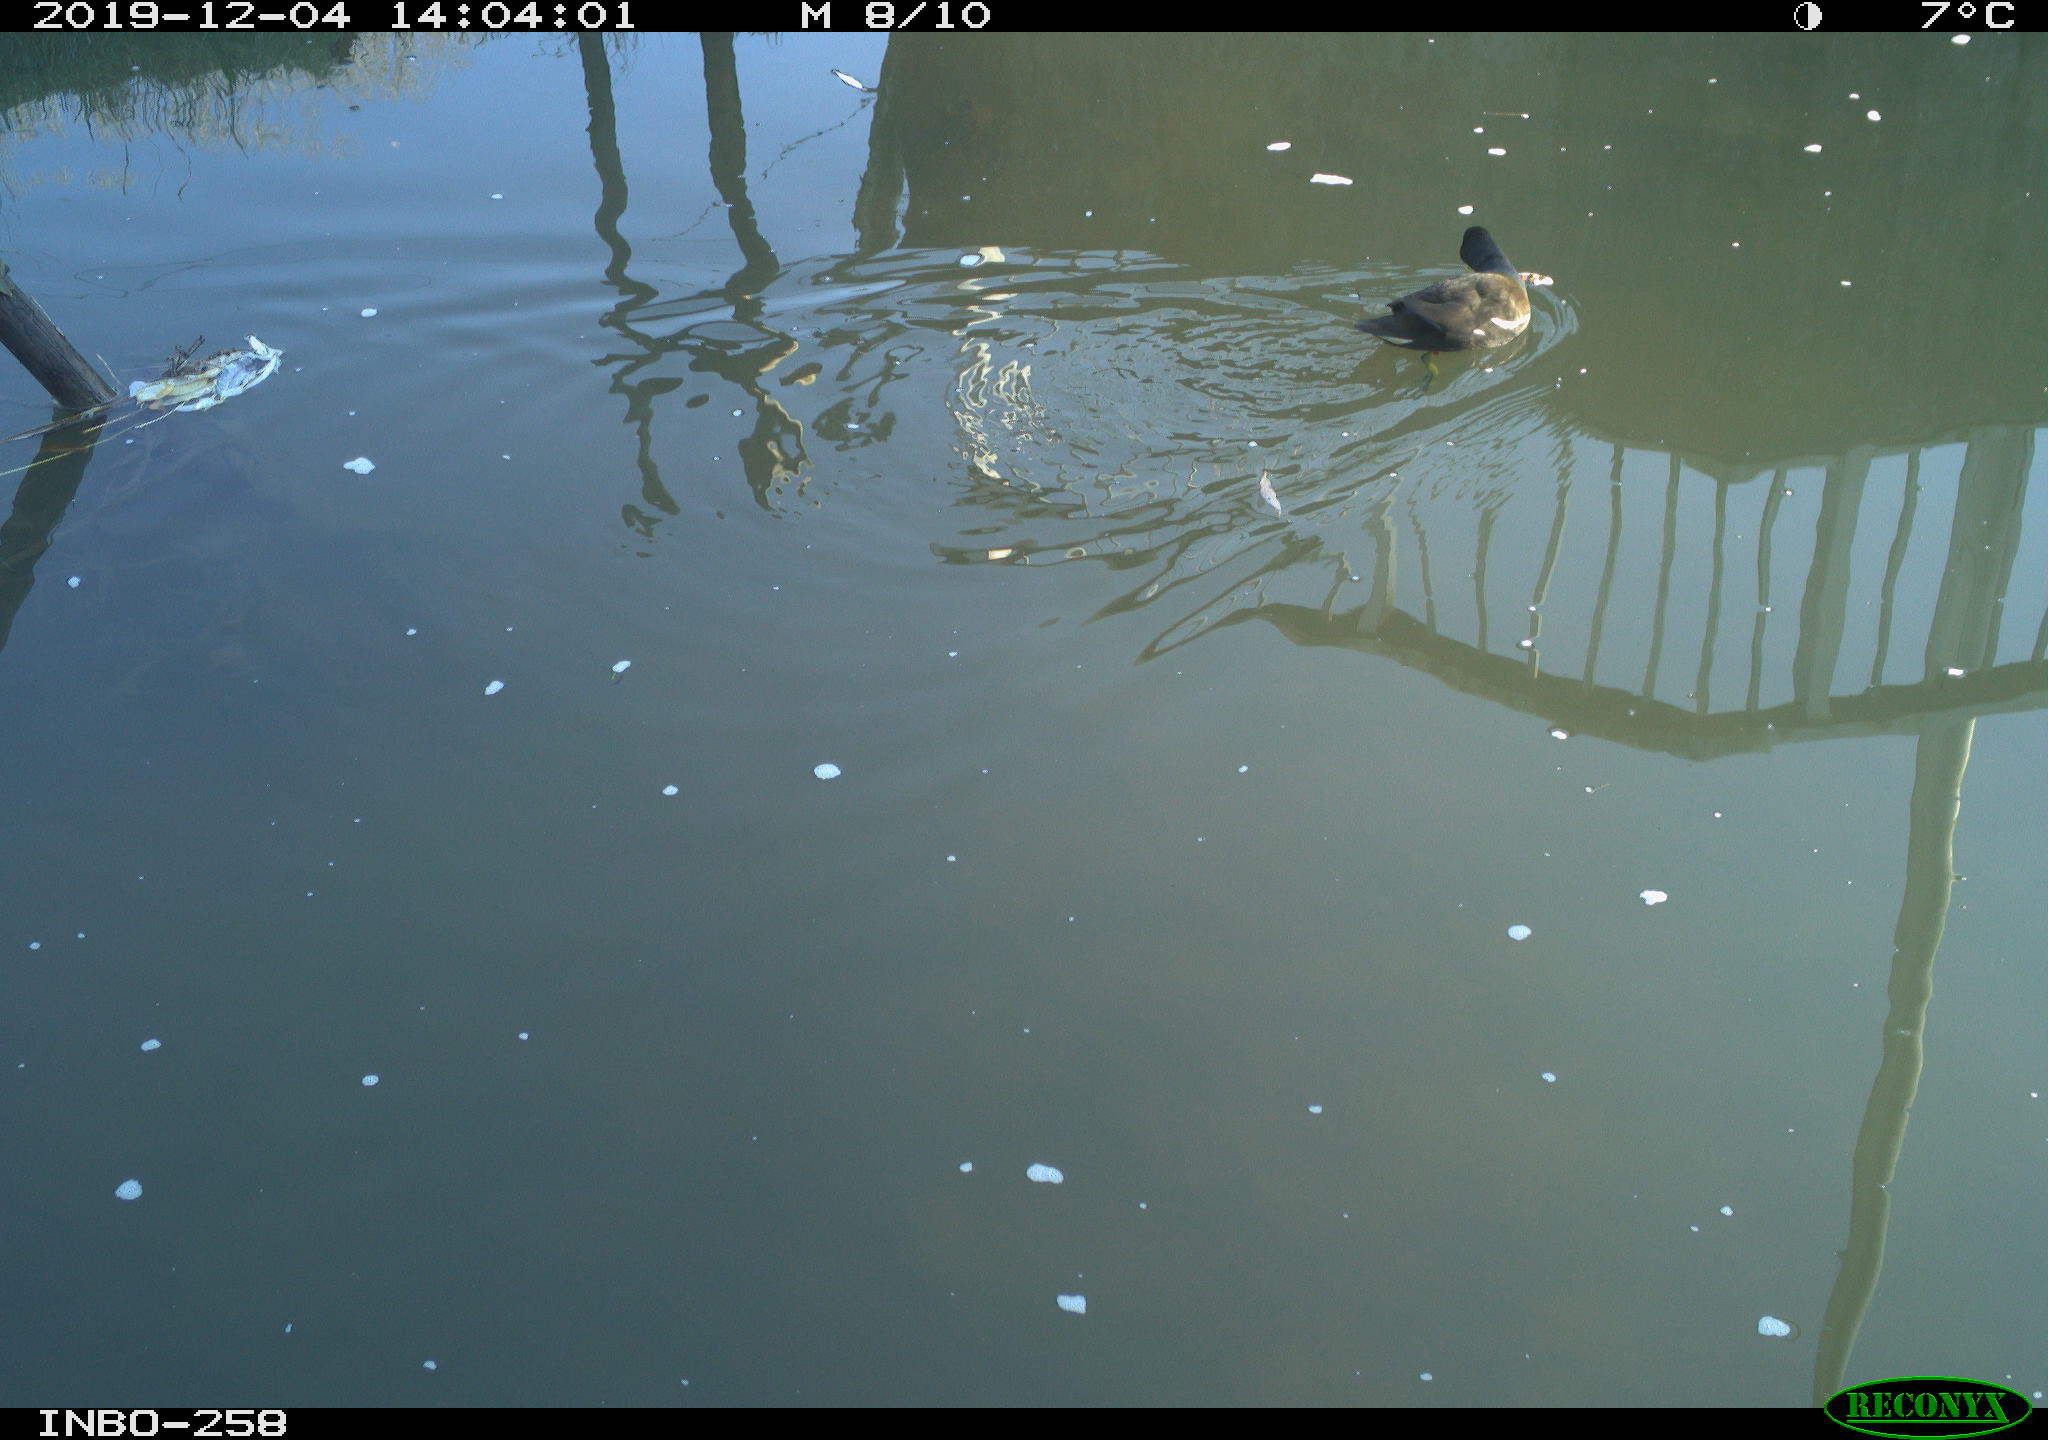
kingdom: Animalia
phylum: Chordata
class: Aves
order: Gruiformes
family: Rallidae
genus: Gallinula
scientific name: Gallinula chloropus
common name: Common moorhen
